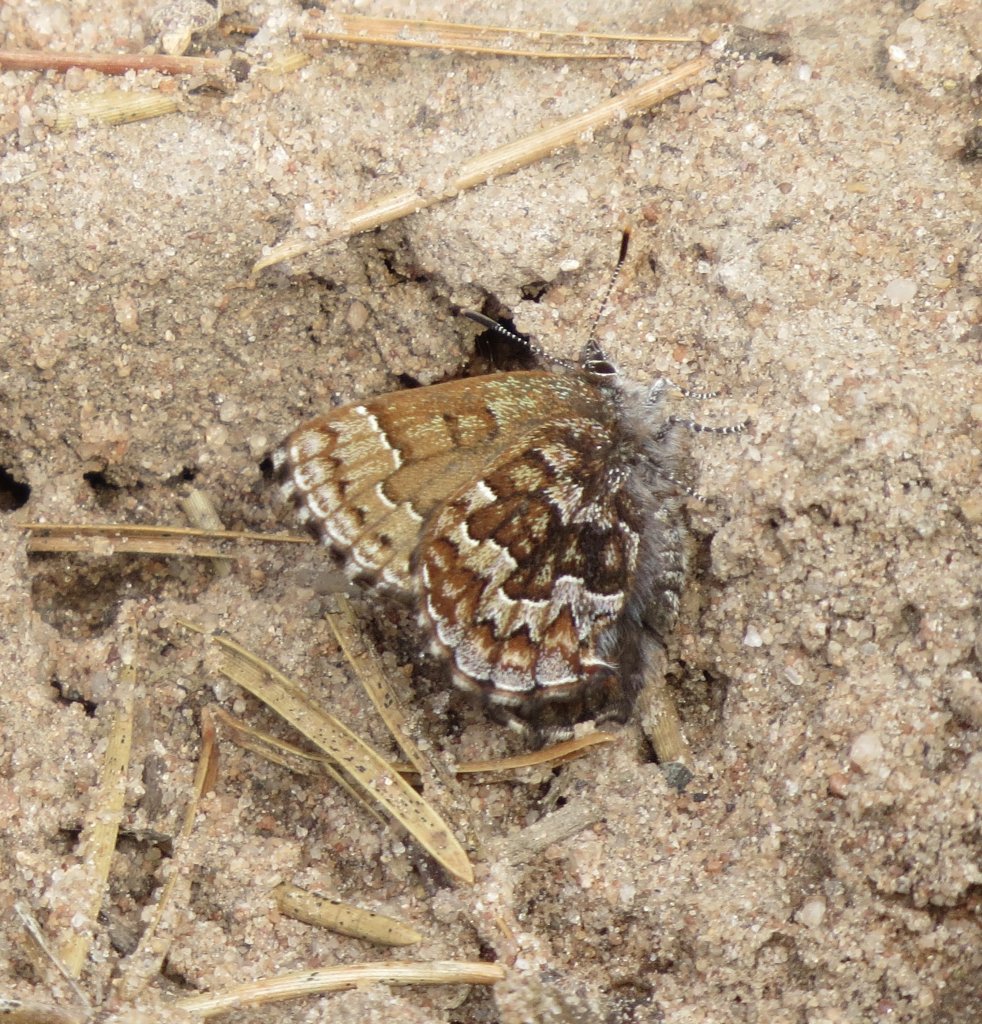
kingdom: Animalia
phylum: Arthropoda
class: Insecta
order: Lepidoptera
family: Lycaenidae
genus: Incisalia
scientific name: Incisalia niphon
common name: Eastern Pine Elfin
